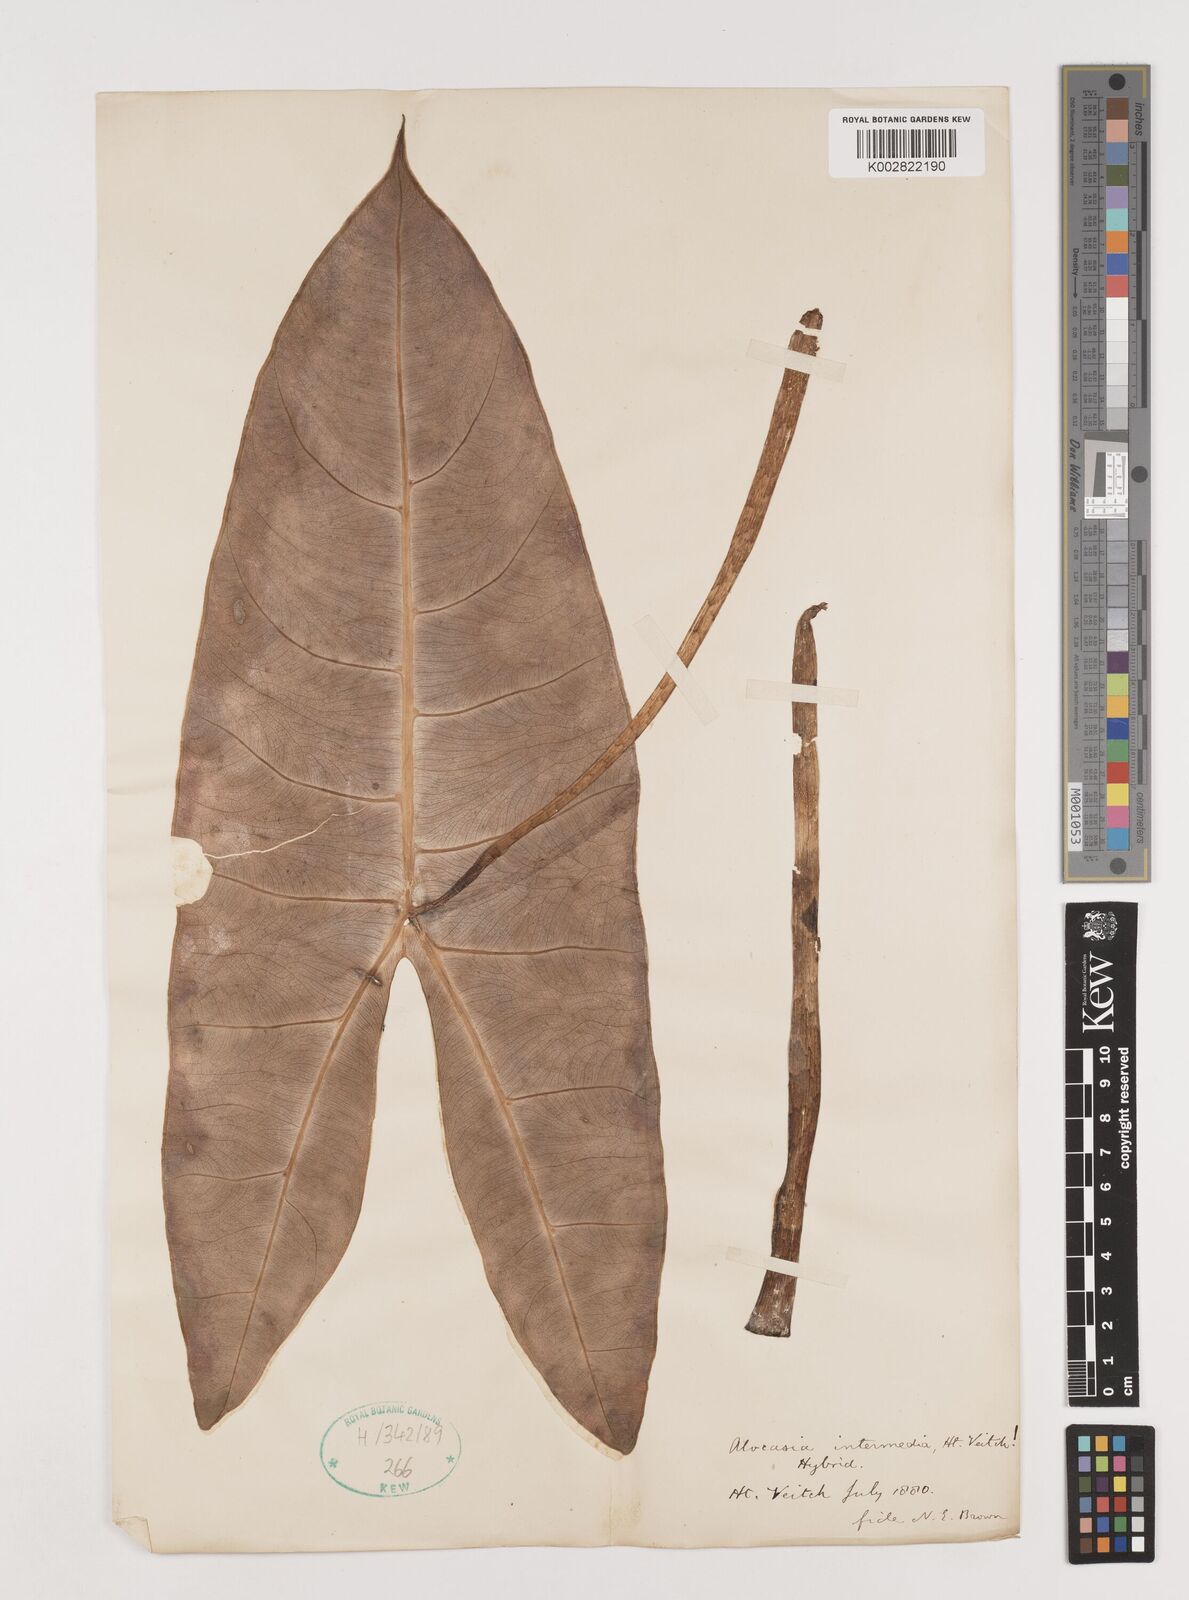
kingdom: Plantae
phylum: Tracheophyta
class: Liliopsida
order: Alismatales
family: Araceae
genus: Alocasia
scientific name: Alocasia macrorrhizos
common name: Giant taro
